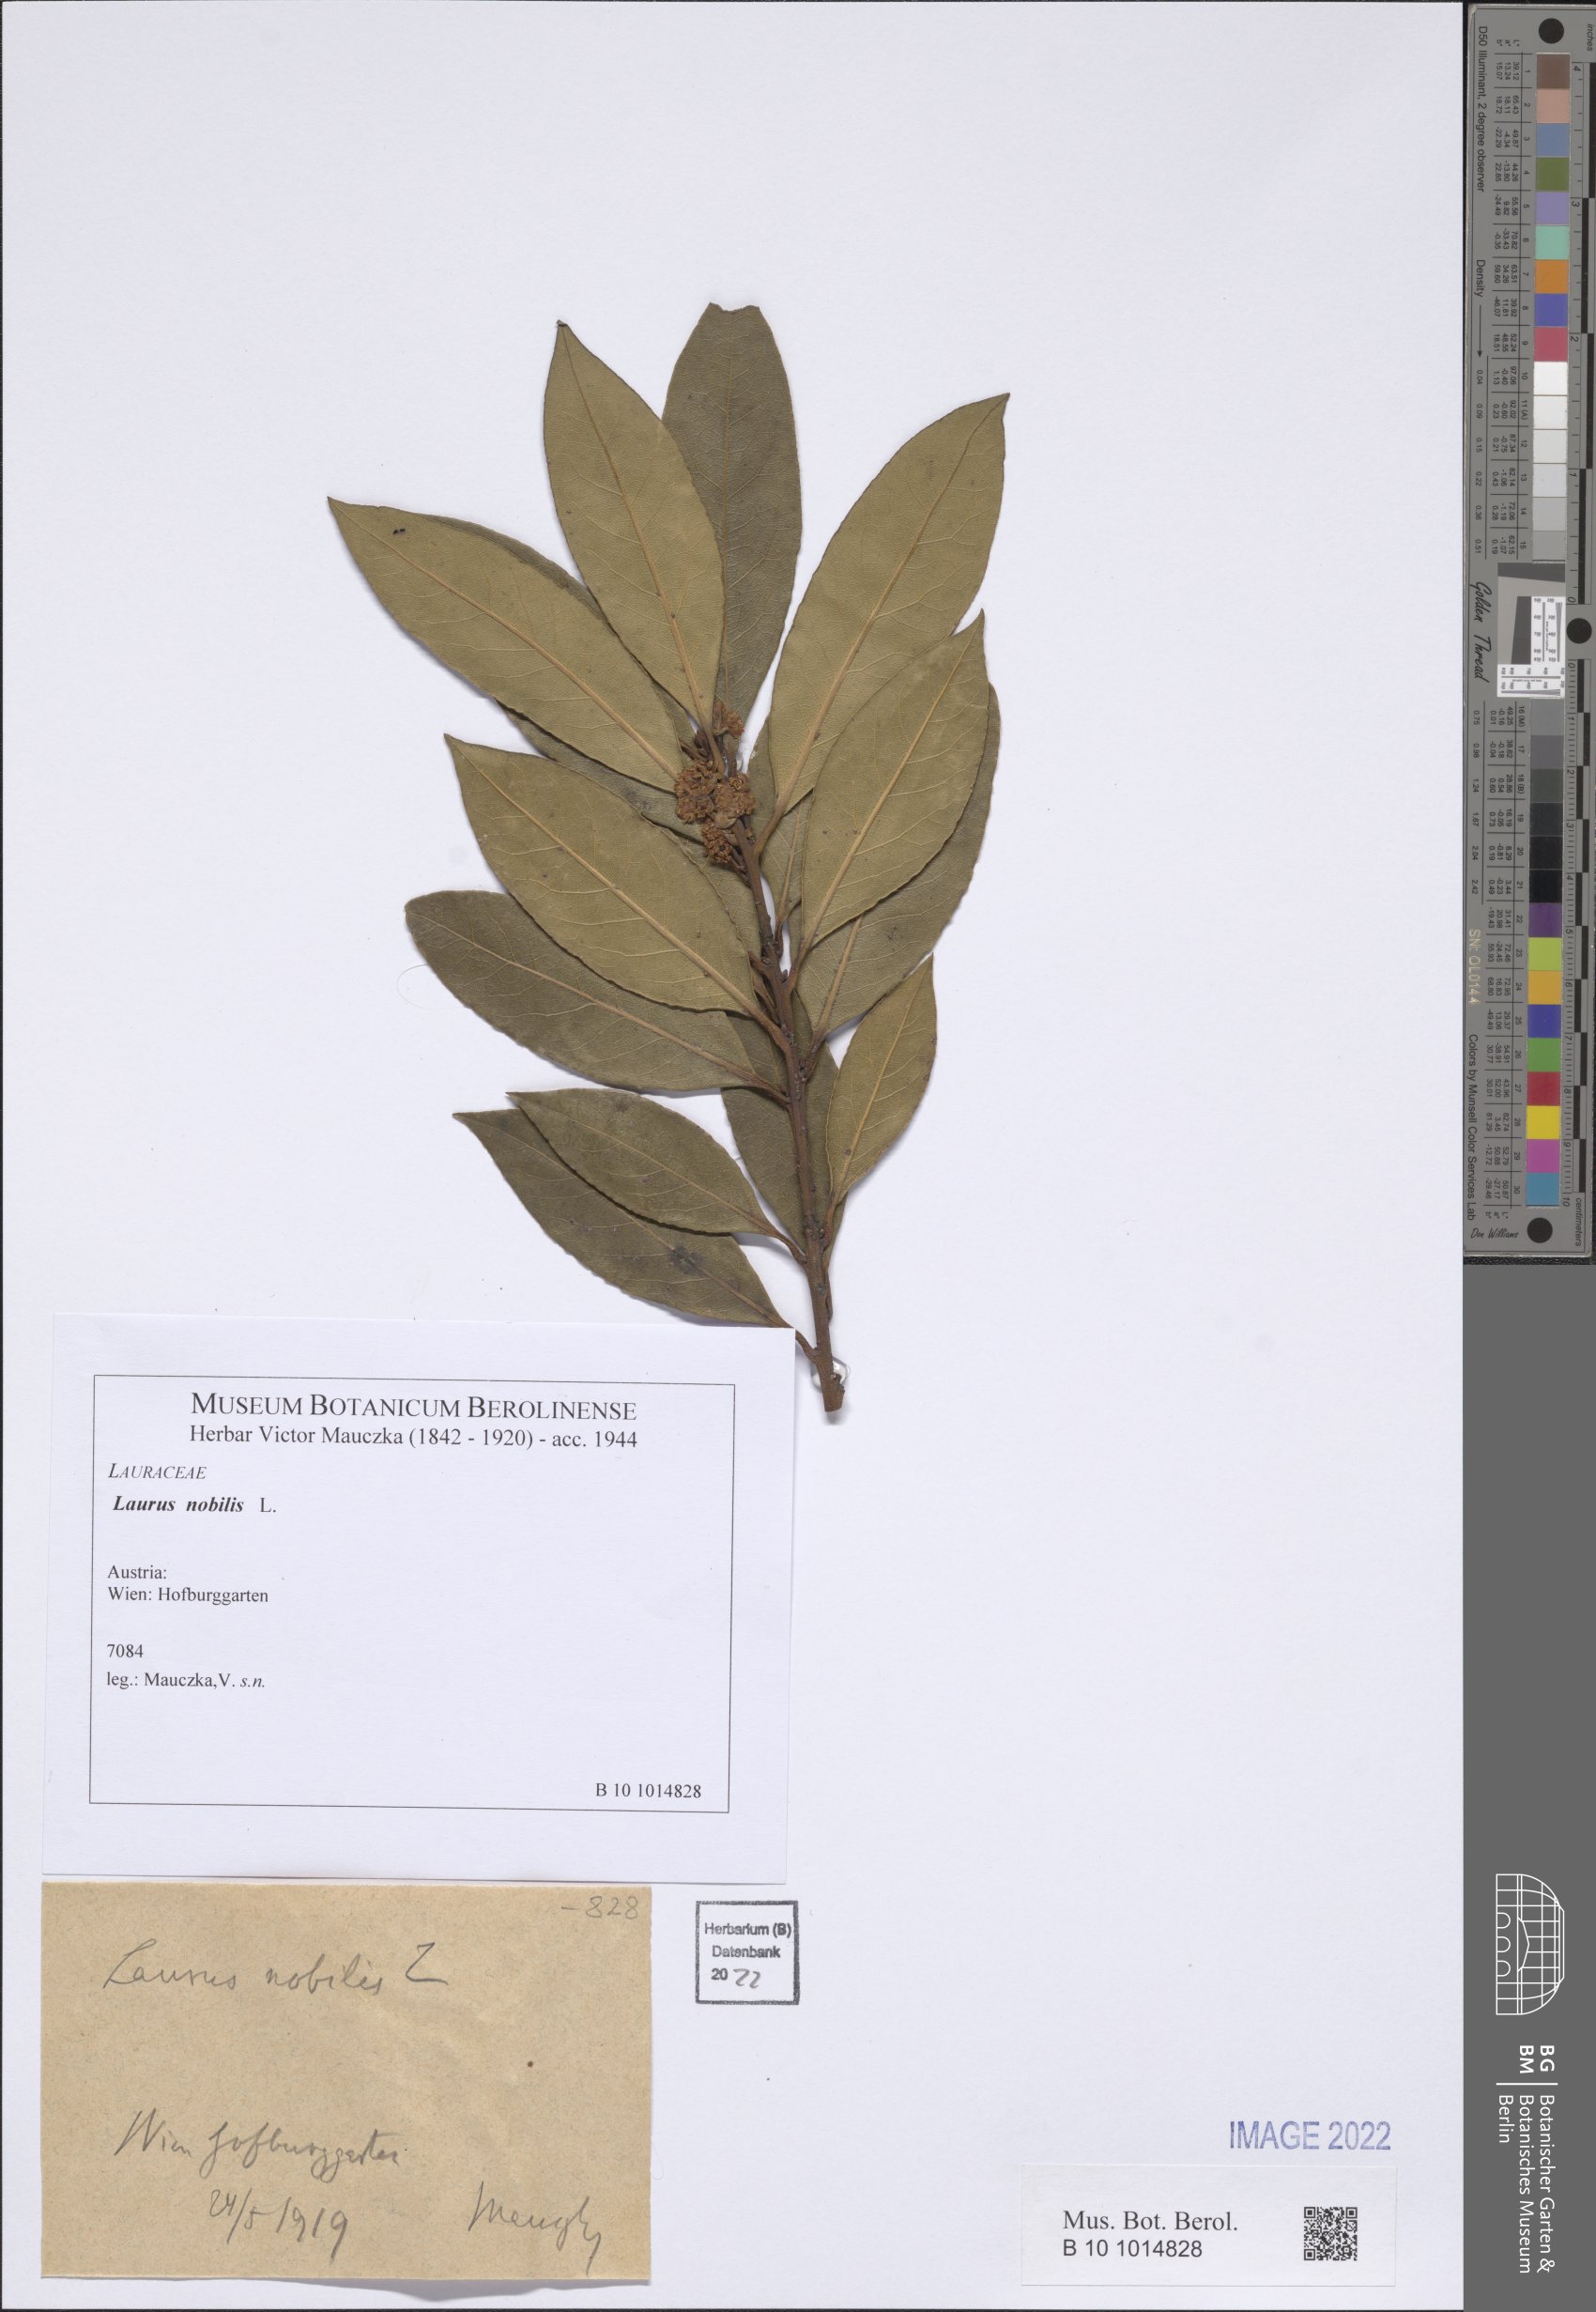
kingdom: Plantae
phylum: Tracheophyta
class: Magnoliopsida
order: Laurales
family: Lauraceae
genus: Laurus
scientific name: Laurus nobilis
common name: Bay
